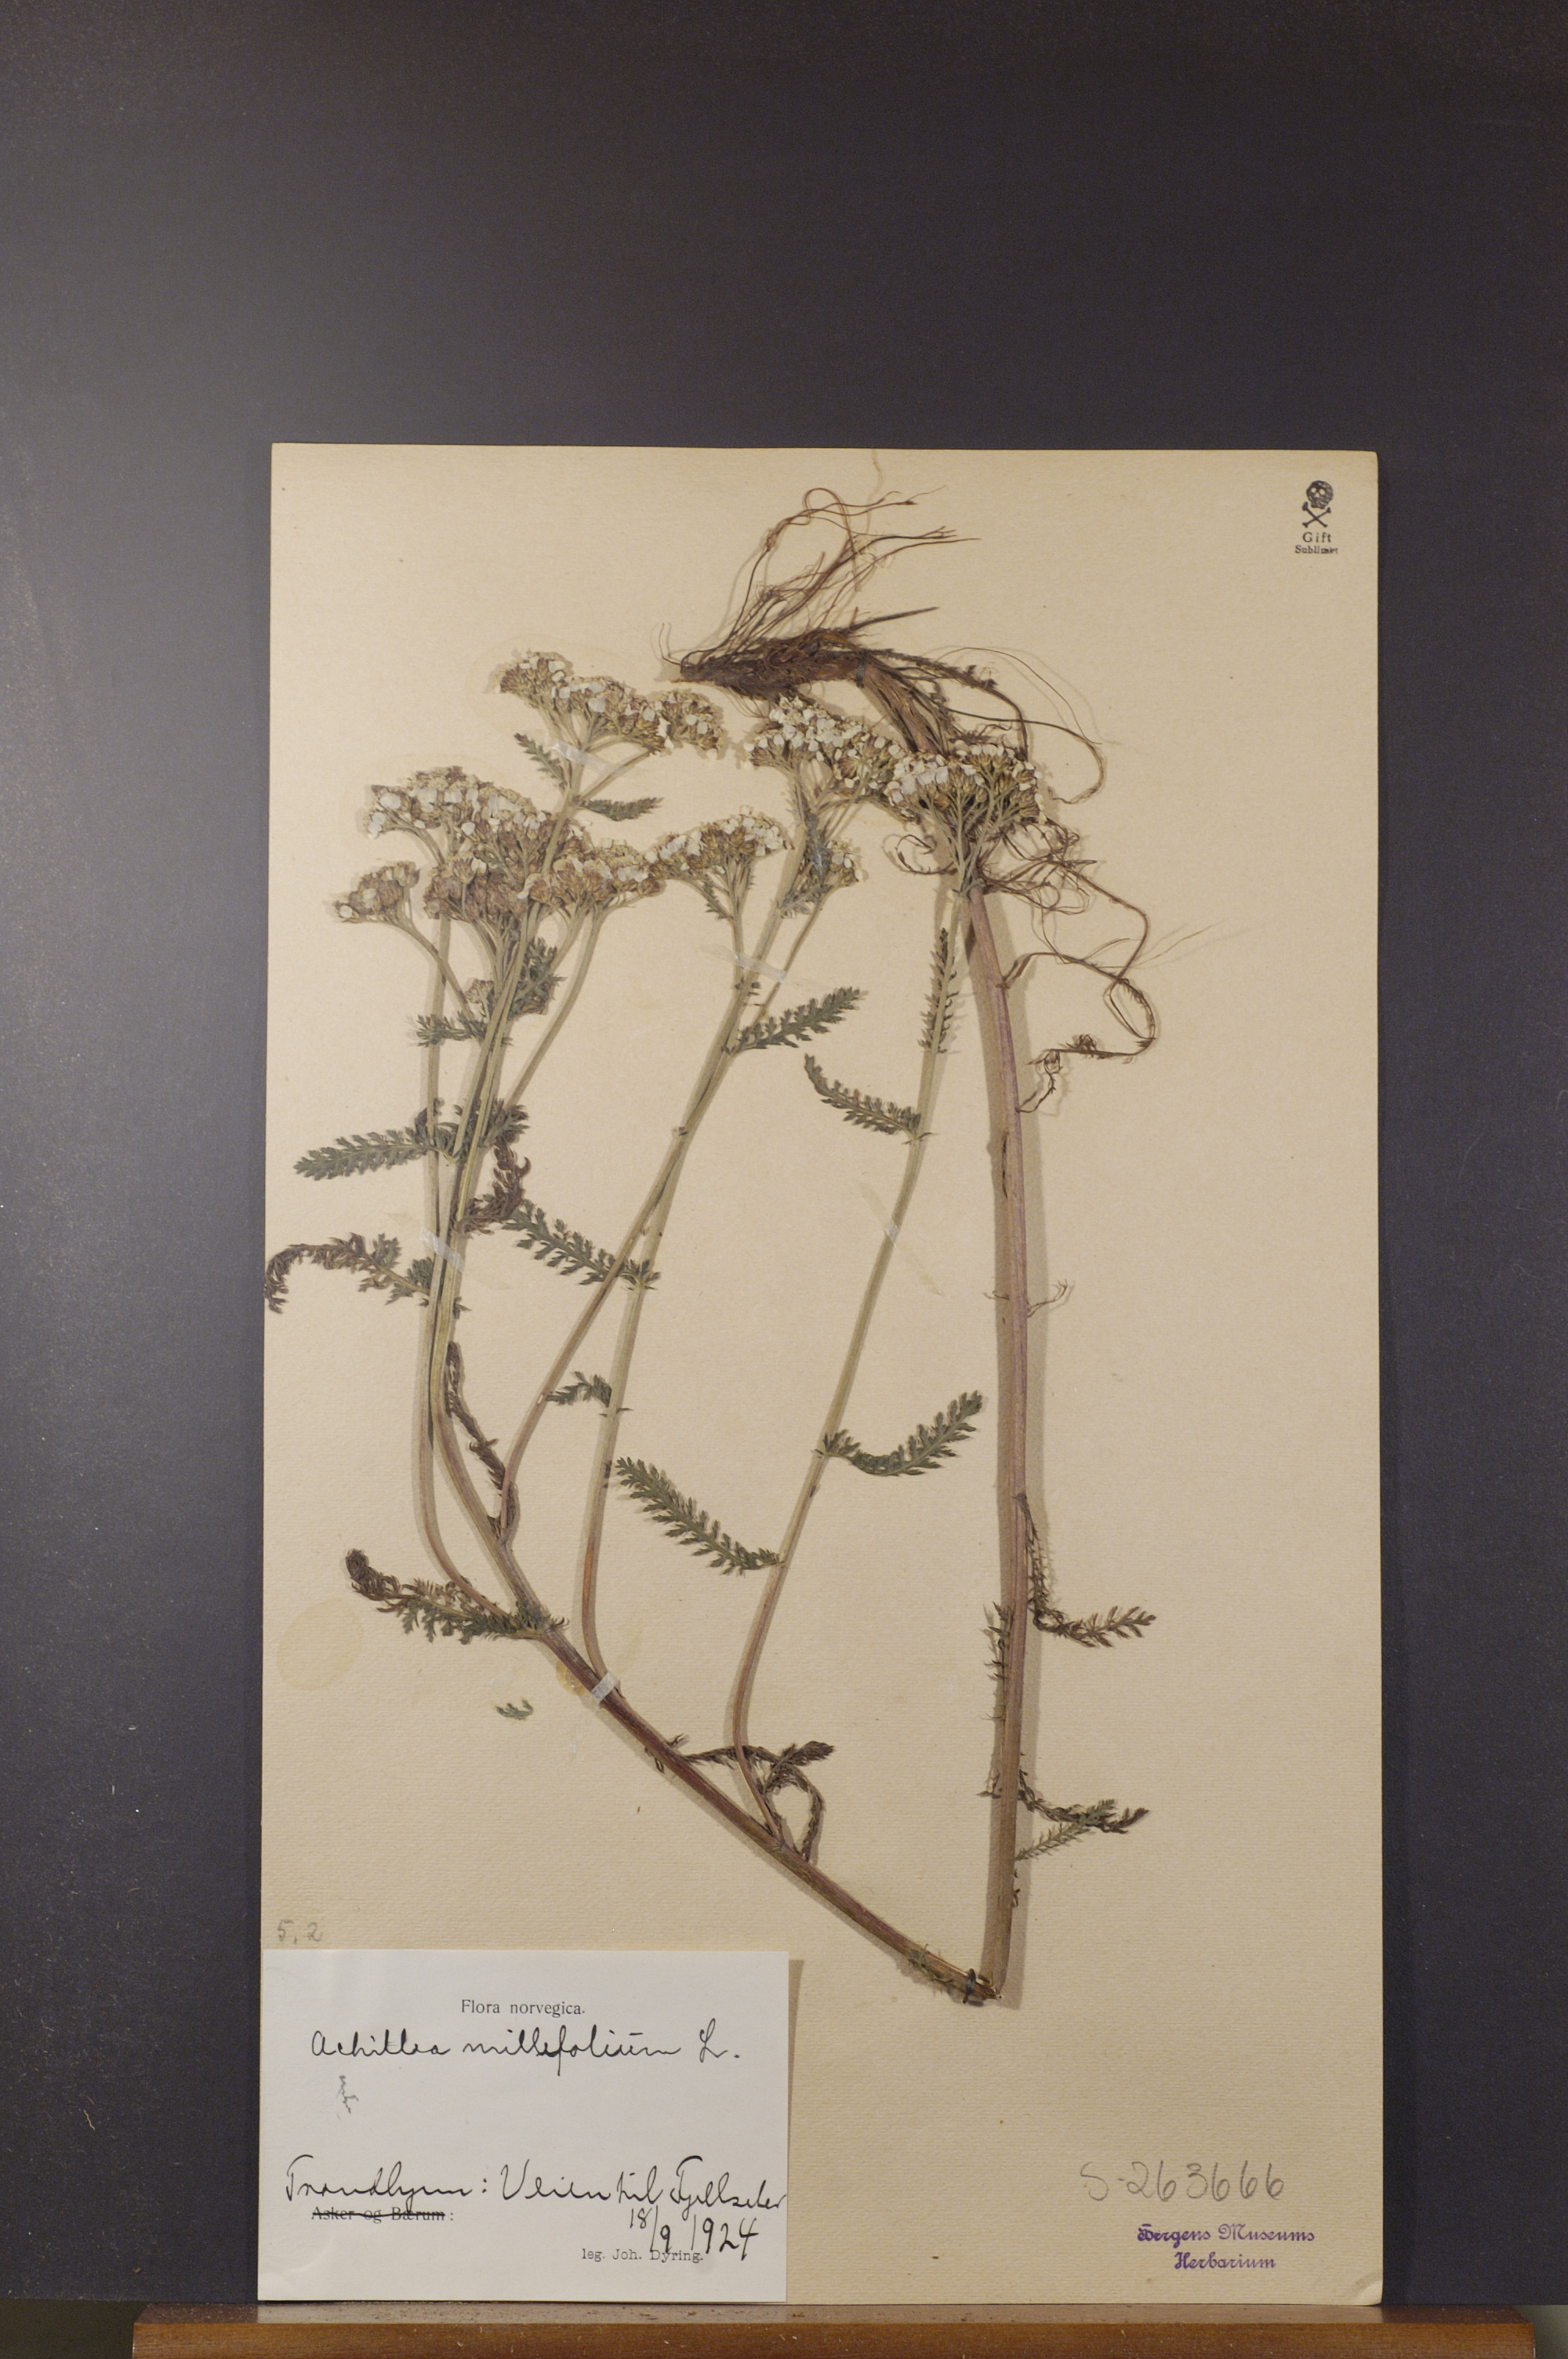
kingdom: Plantae
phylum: Tracheophyta
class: Magnoliopsida
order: Asterales
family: Asteraceae
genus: Achillea
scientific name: Achillea millefolium
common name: Yarrow
